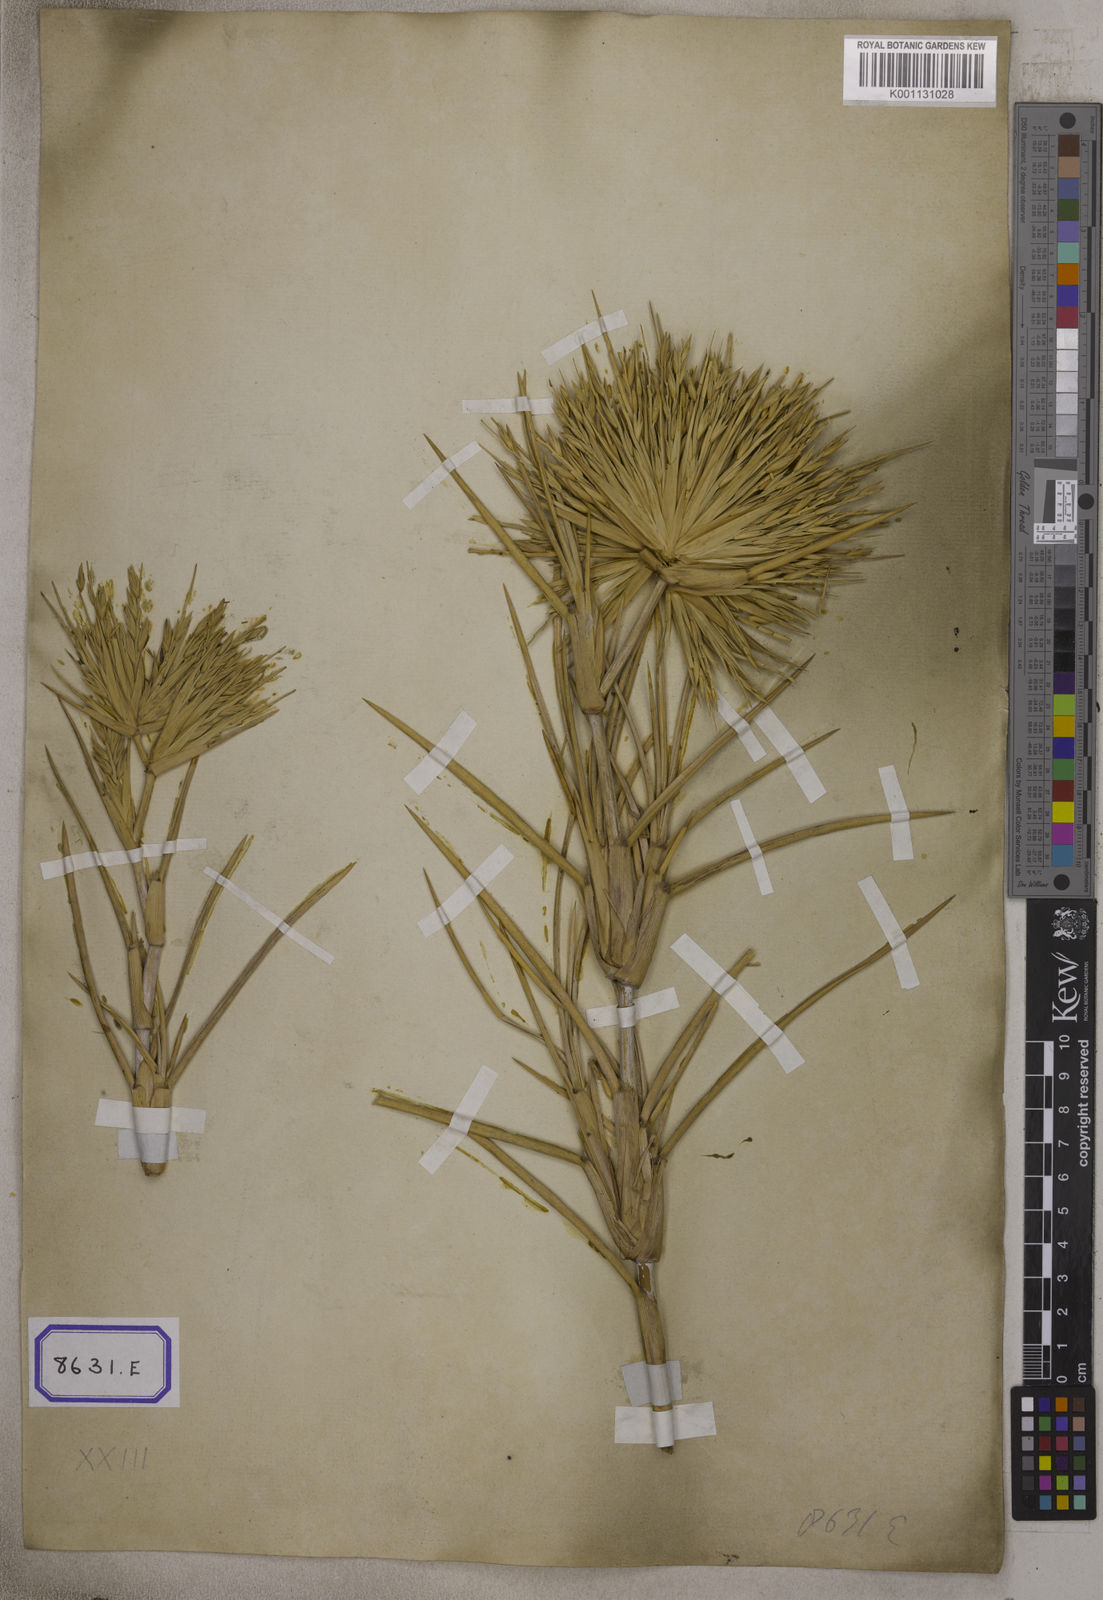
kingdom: Plantae
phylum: Tracheophyta
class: Liliopsida
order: Poales
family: Poaceae
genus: Spinifex
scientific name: Spinifex littoreus
